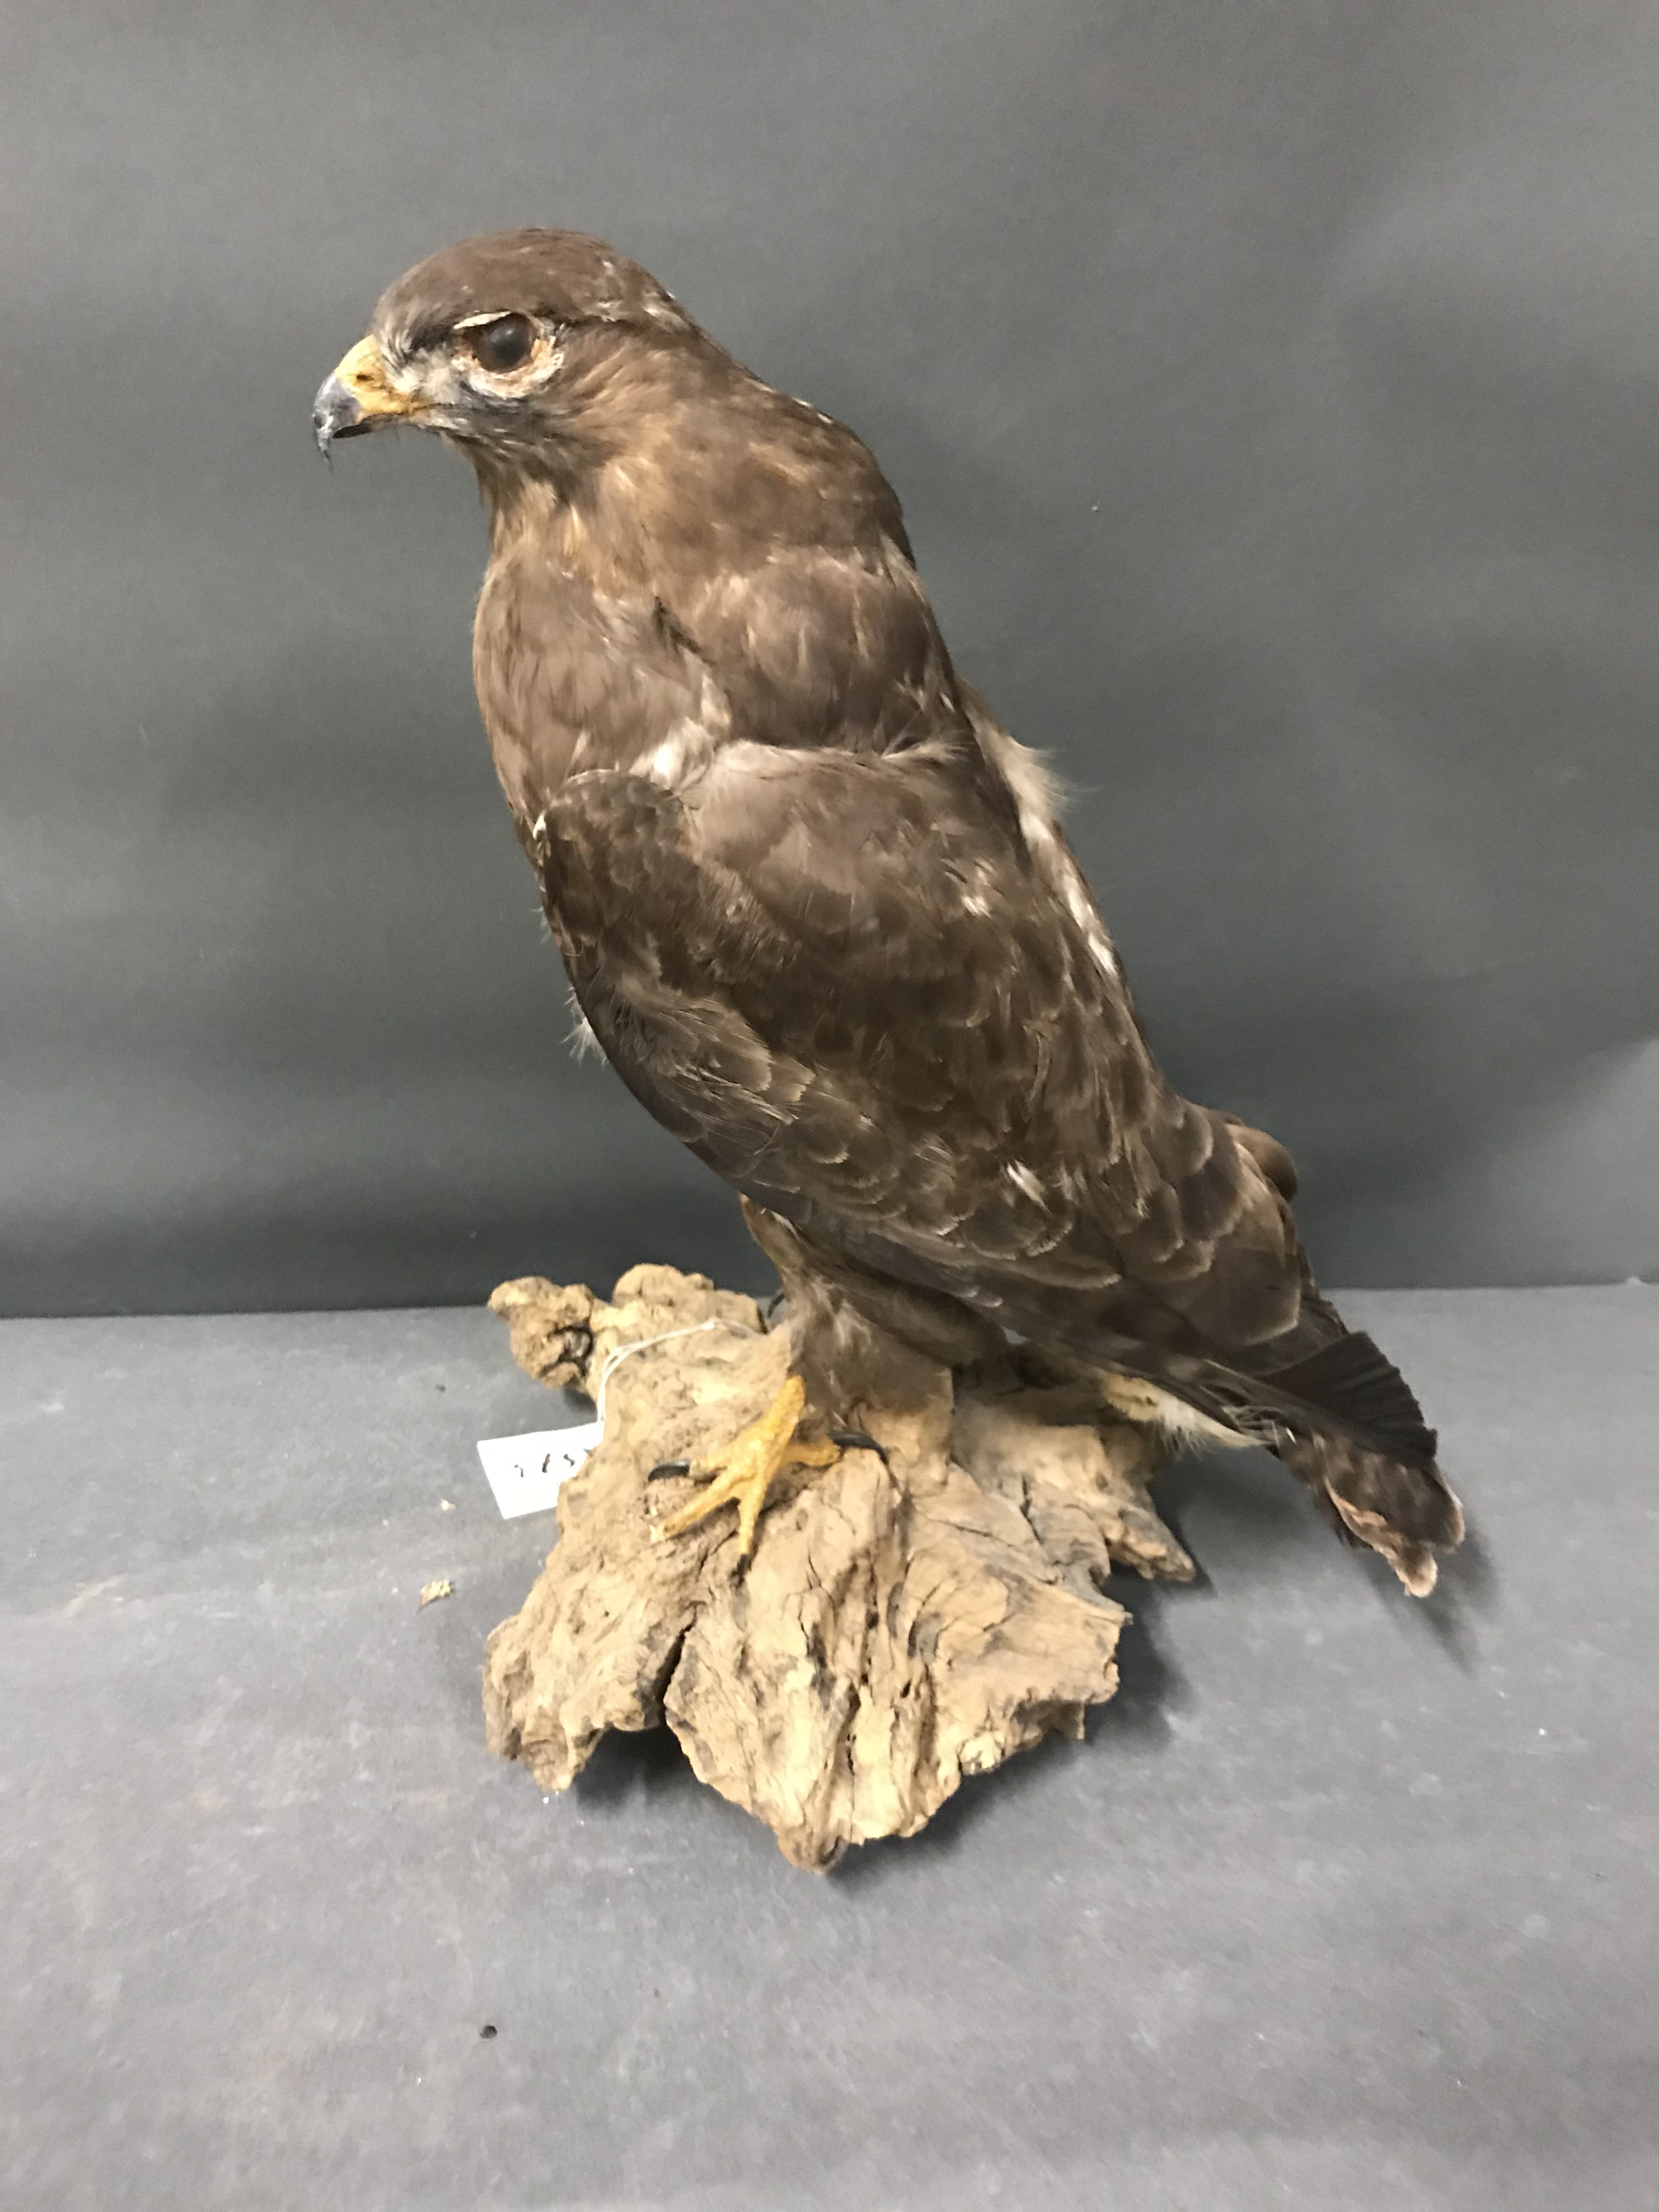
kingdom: Animalia
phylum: Chordata
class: Aves
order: Accipitriformes
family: Accipitridae
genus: Buteo
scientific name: Buteo buteo
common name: Common buzzard
